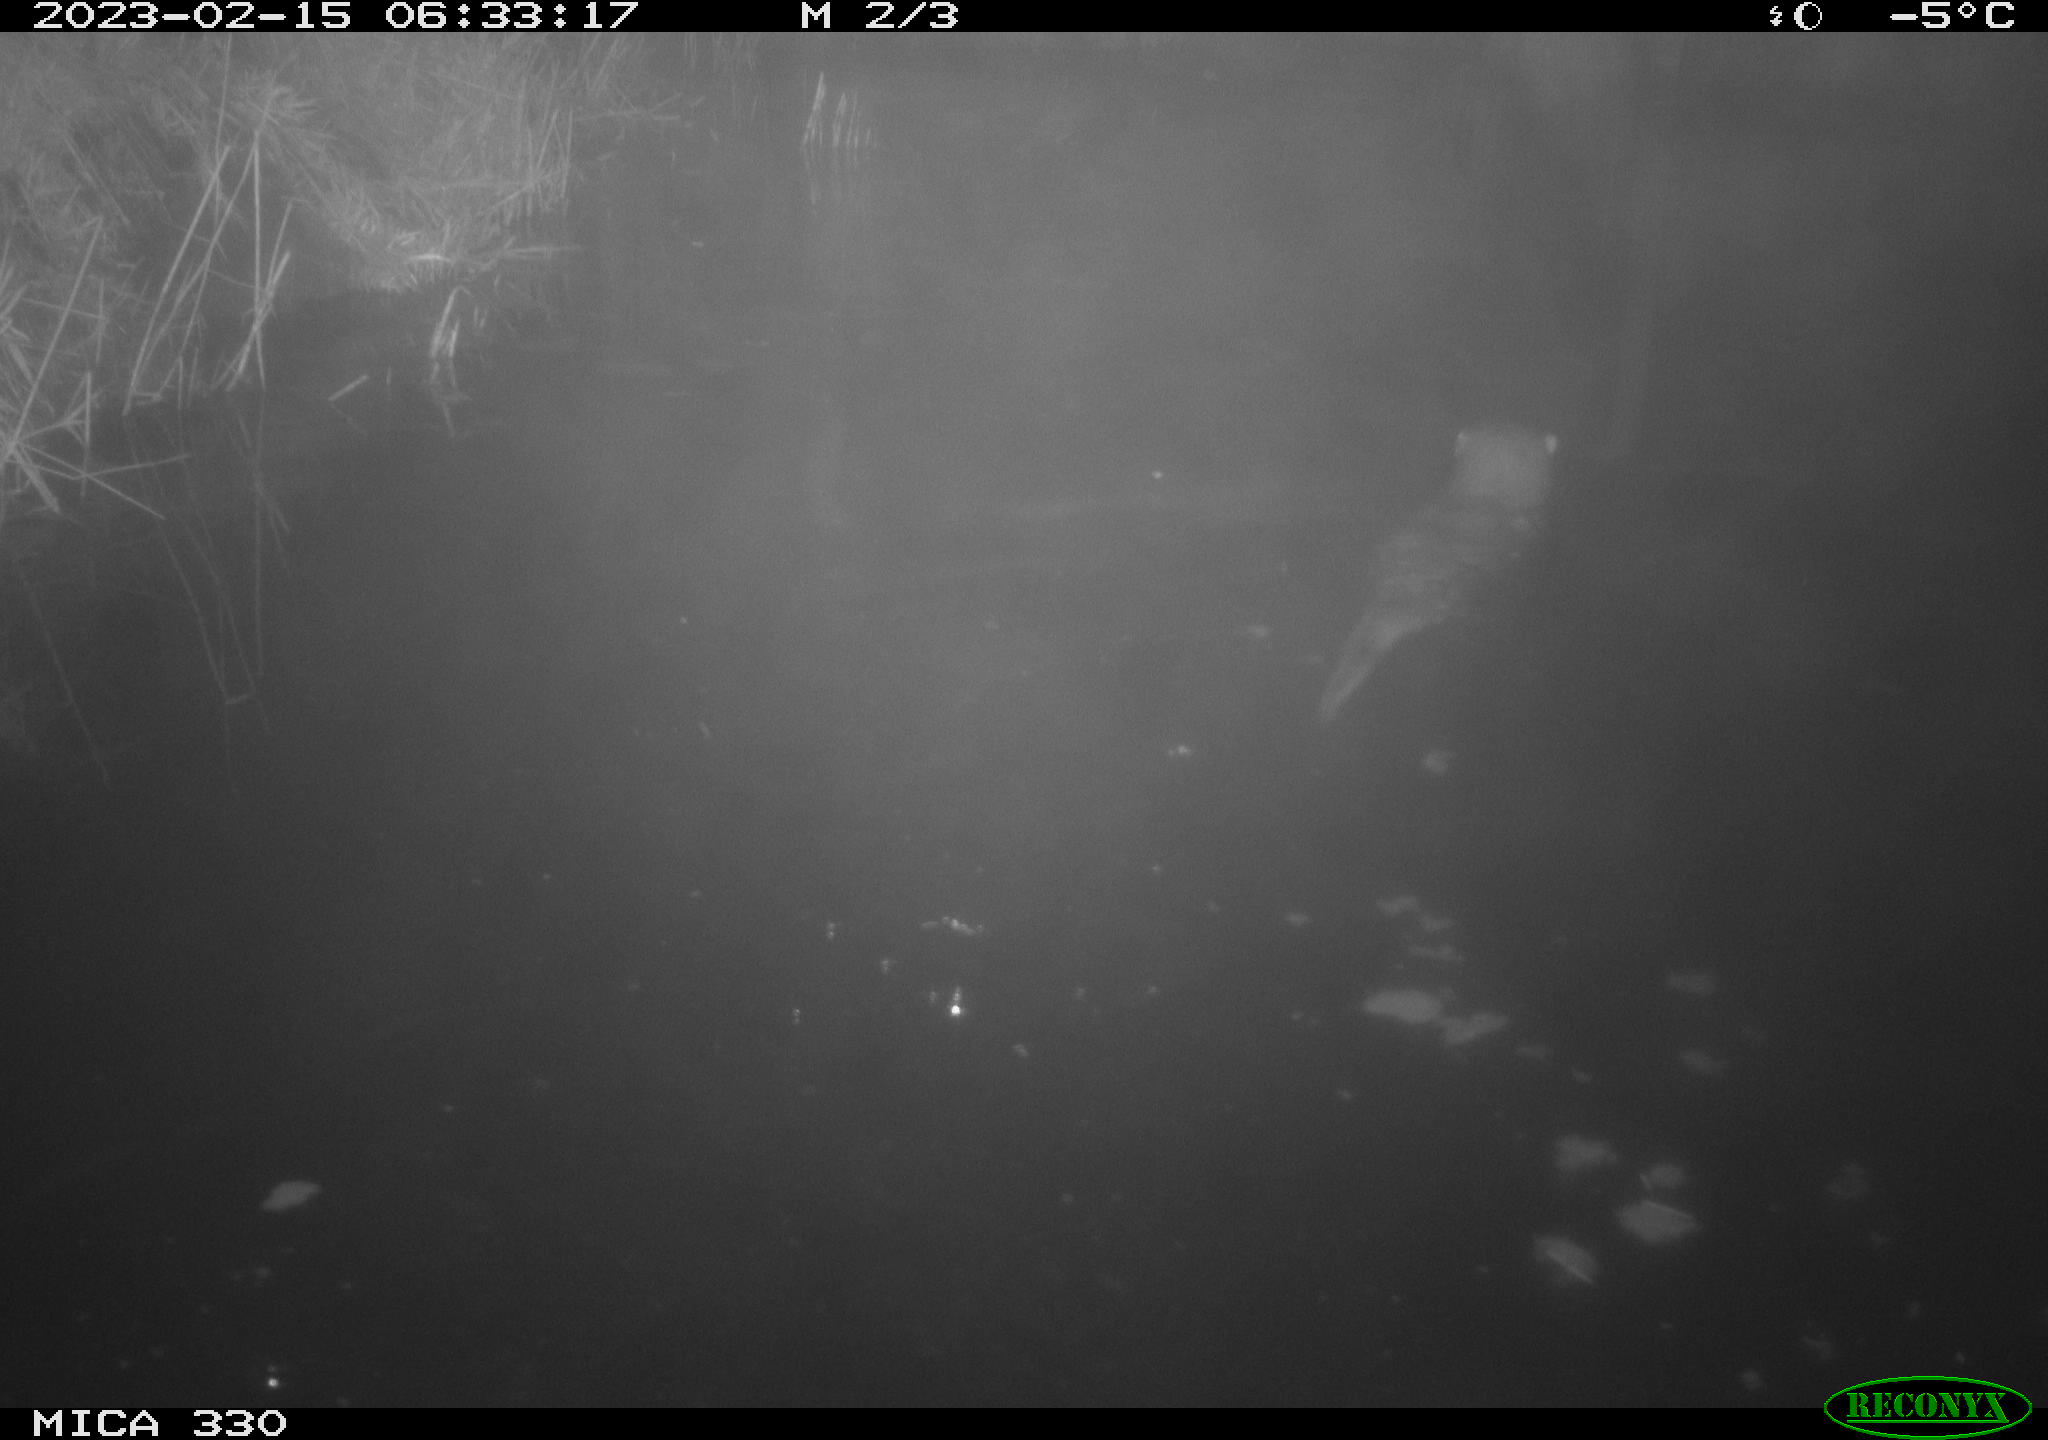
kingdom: Animalia
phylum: Chordata
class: Mammalia
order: Carnivora
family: Mustelidae
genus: Lutra
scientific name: Lutra lutra
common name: European otter
